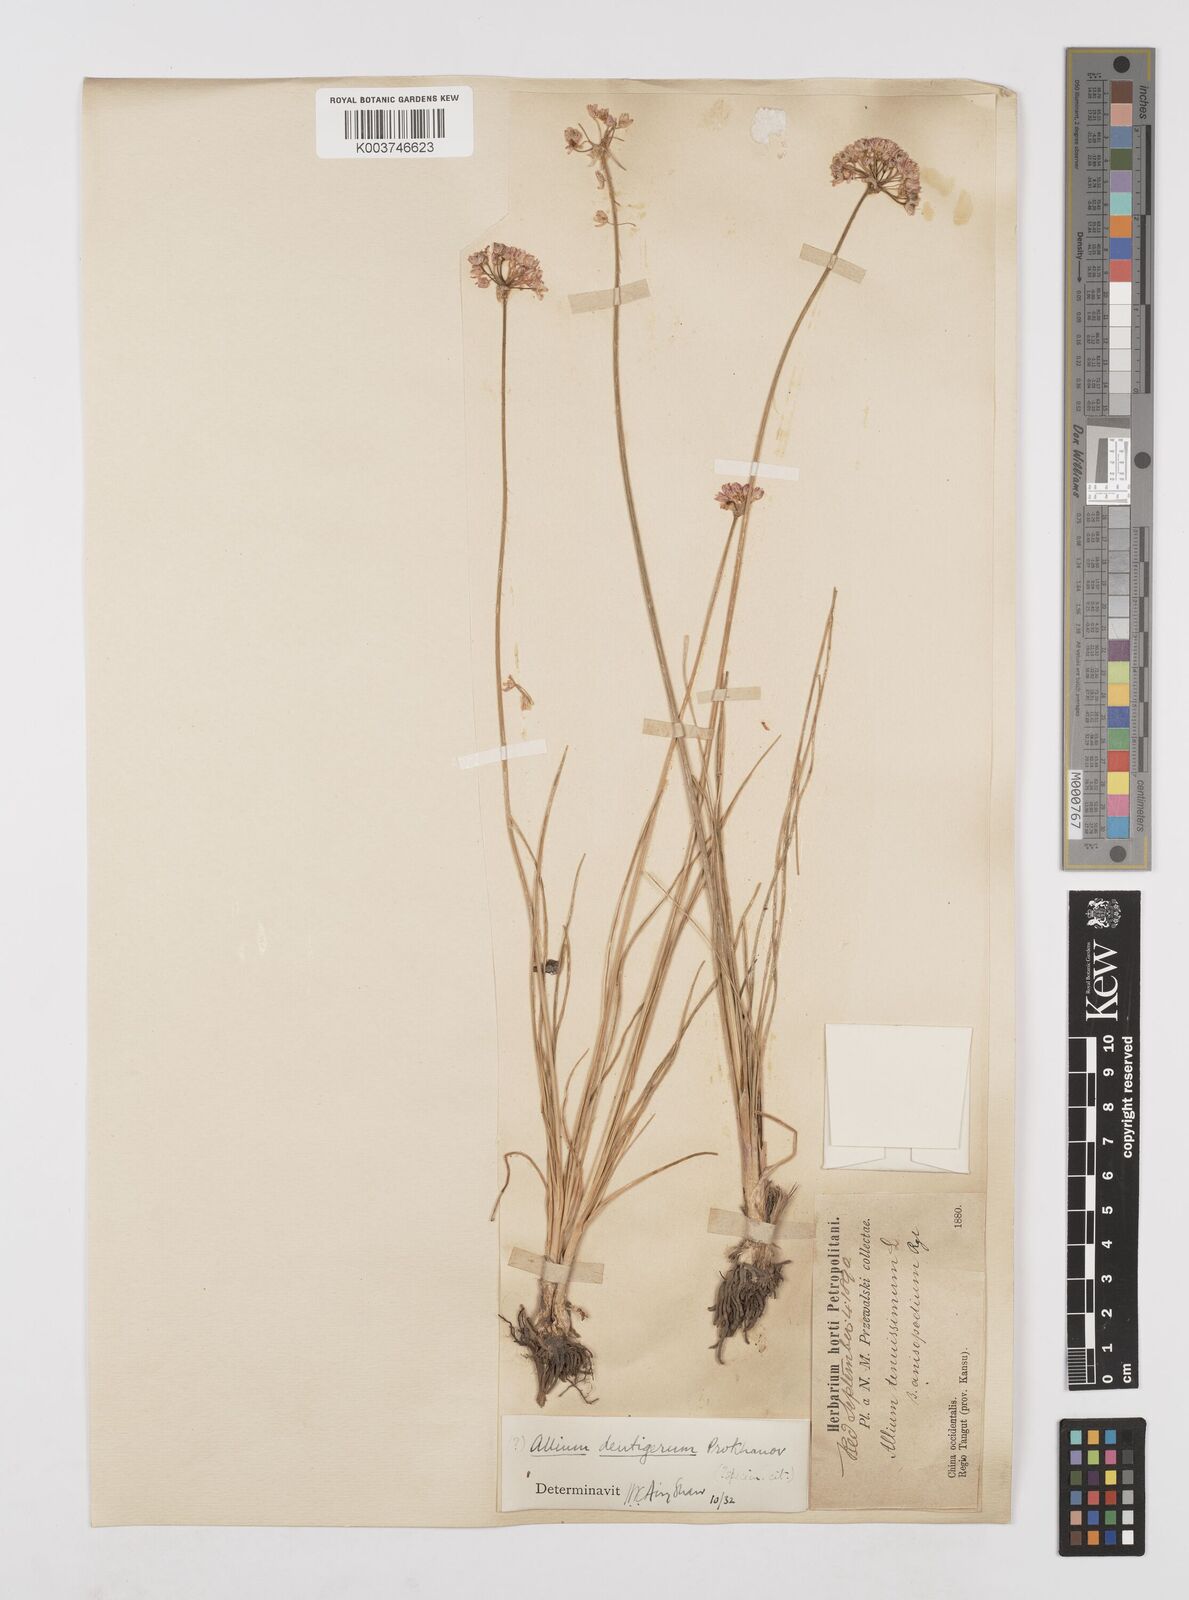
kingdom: Plantae
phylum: Tracheophyta
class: Liliopsida
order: Asparagales
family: Amaryllidaceae
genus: Allium
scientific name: Allium bidentatum
